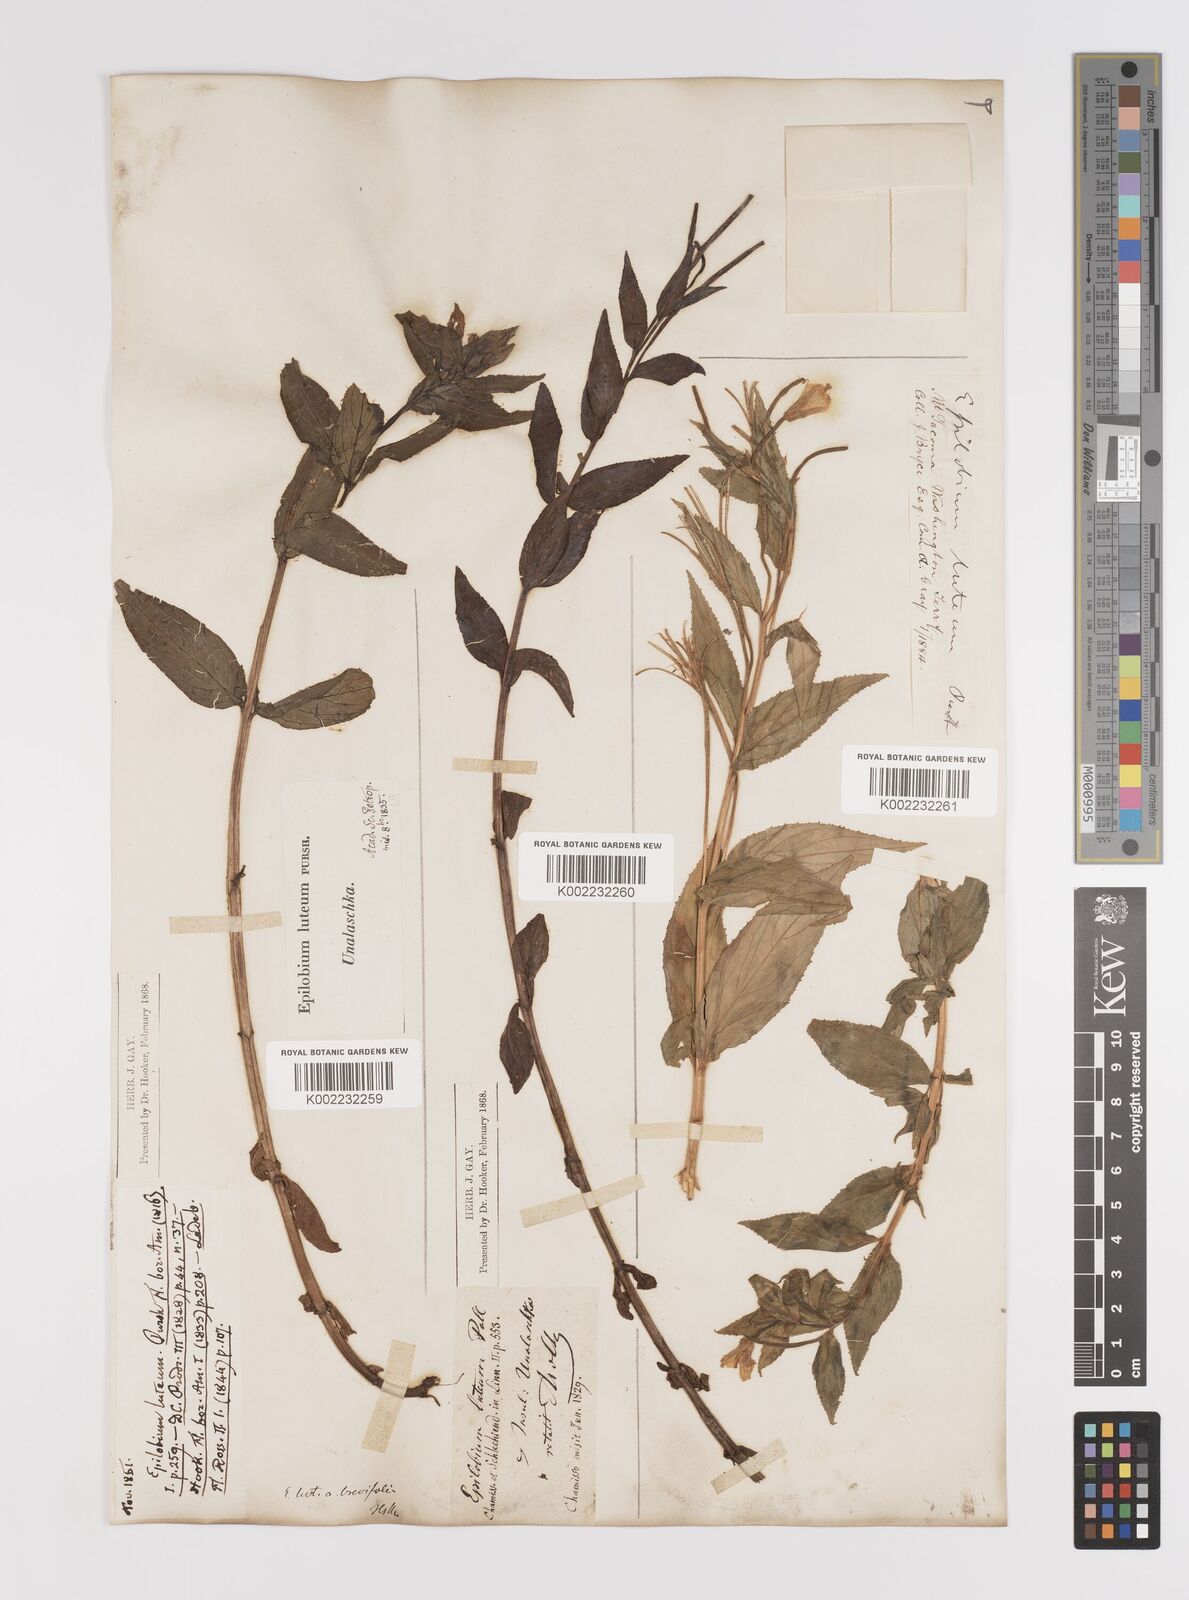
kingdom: Plantae
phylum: Tracheophyta
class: Magnoliopsida
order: Myrtales
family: Onagraceae
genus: Epilobium
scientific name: Epilobium luteum
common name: Yellow willowherb
